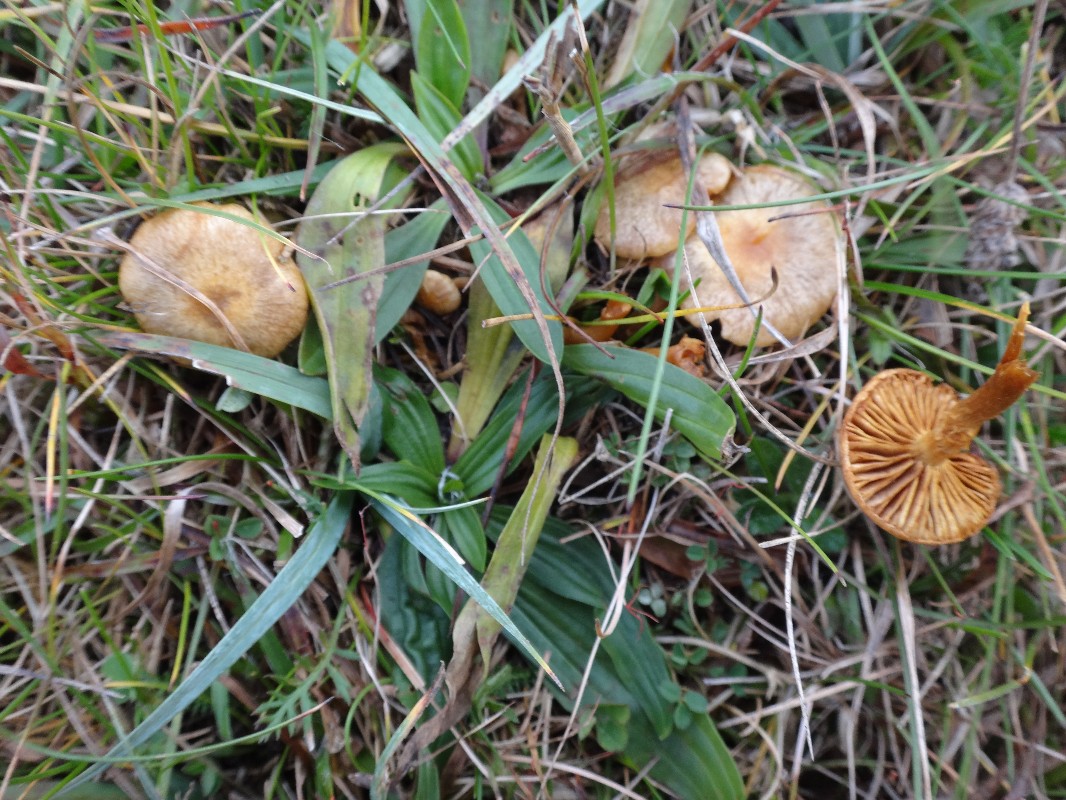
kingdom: Fungi
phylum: Basidiomycota
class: Agaricomycetes
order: Agaricales
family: Strophariaceae
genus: Pholiota
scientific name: Pholiota conissans
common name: pile-skælhat
